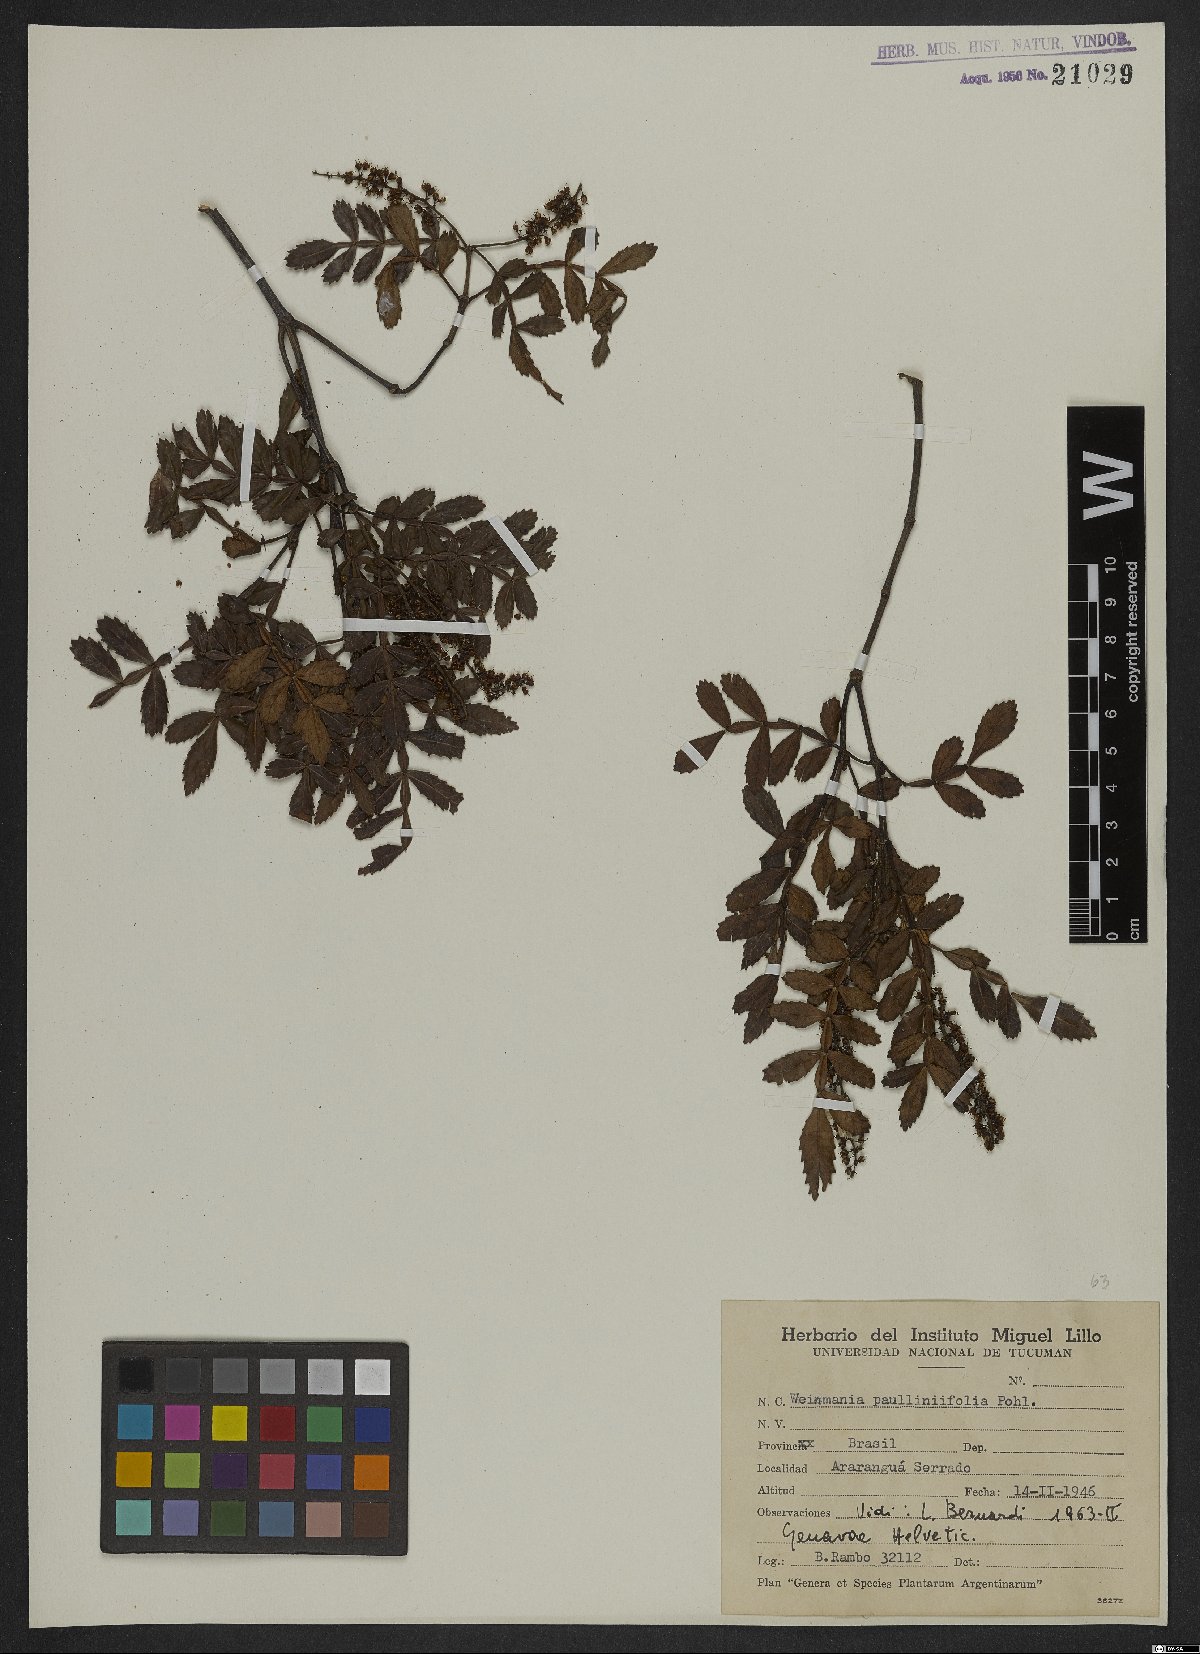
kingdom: Plantae
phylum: Tracheophyta
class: Magnoliopsida
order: Oxalidales
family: Cunoniaceae
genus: Weinmannia
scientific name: Weinmannia paullinifolia
